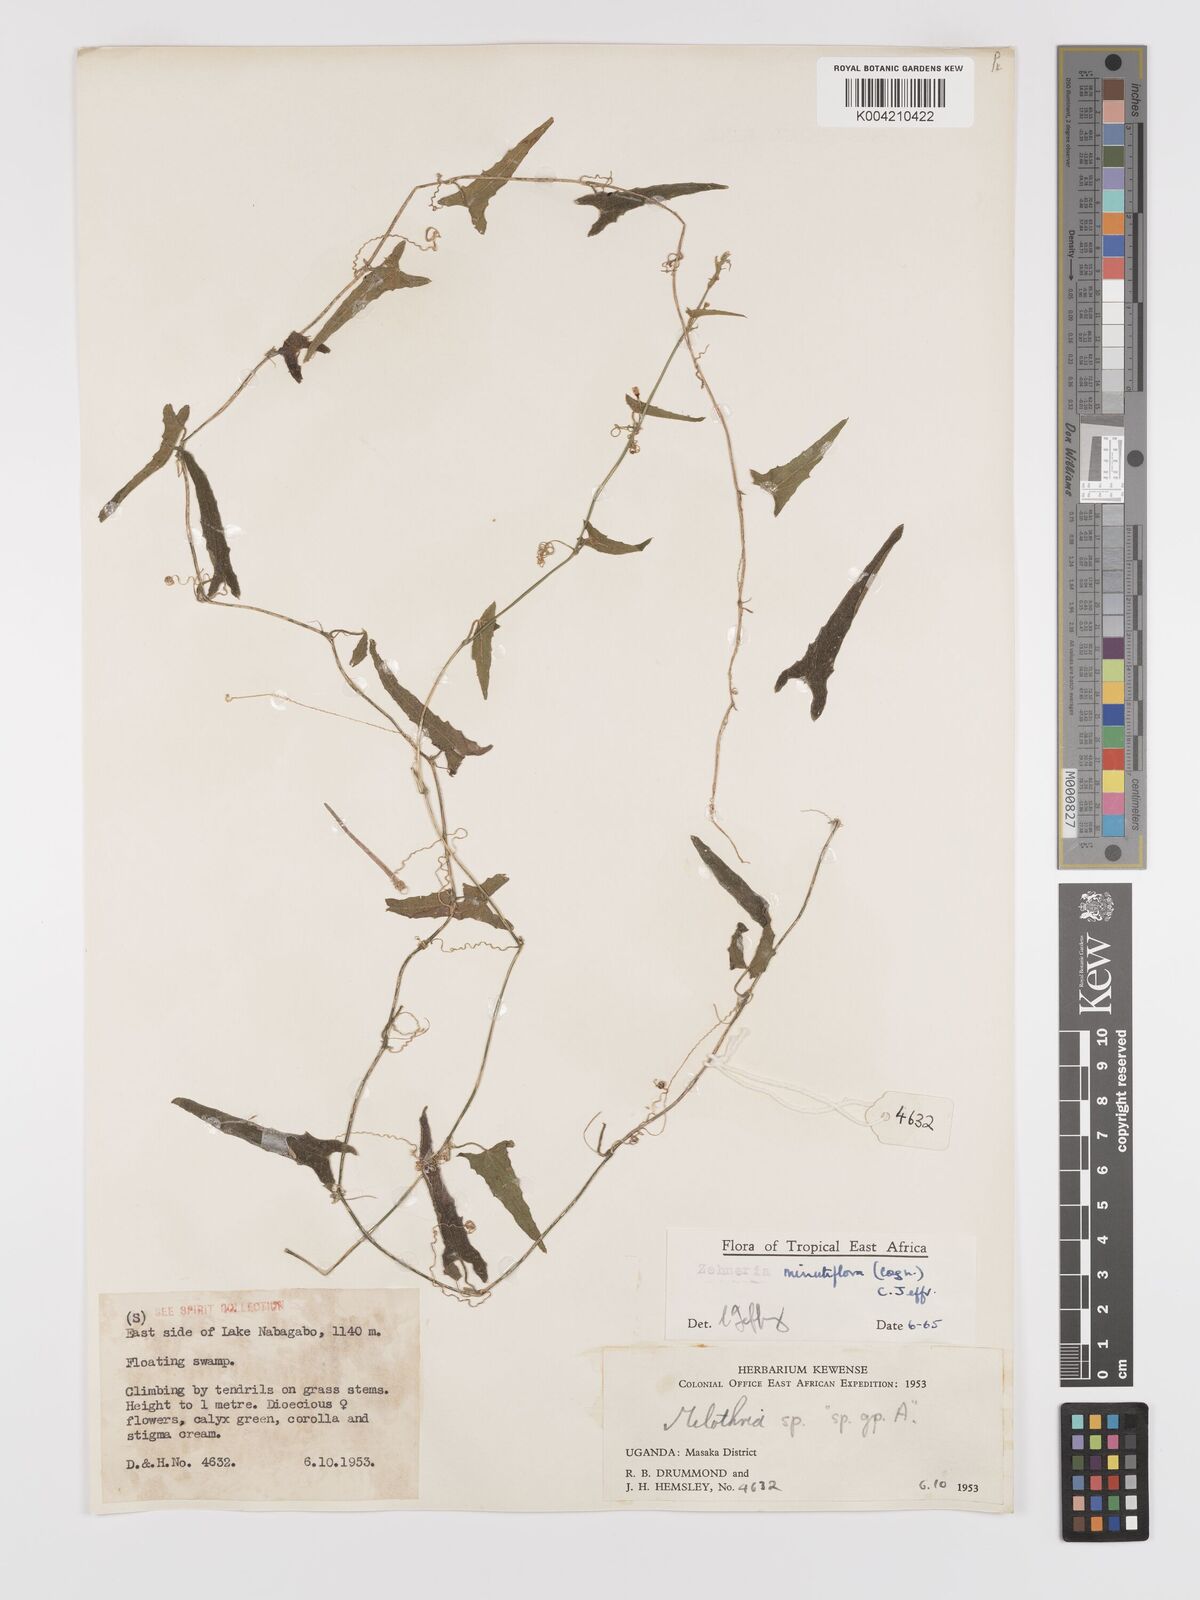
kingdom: Plantae
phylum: Tracheophyta
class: Magnoliopsida
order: Cucurbitales
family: Cucurbitaceae
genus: Zehneria
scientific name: Zehneria minutiflora
